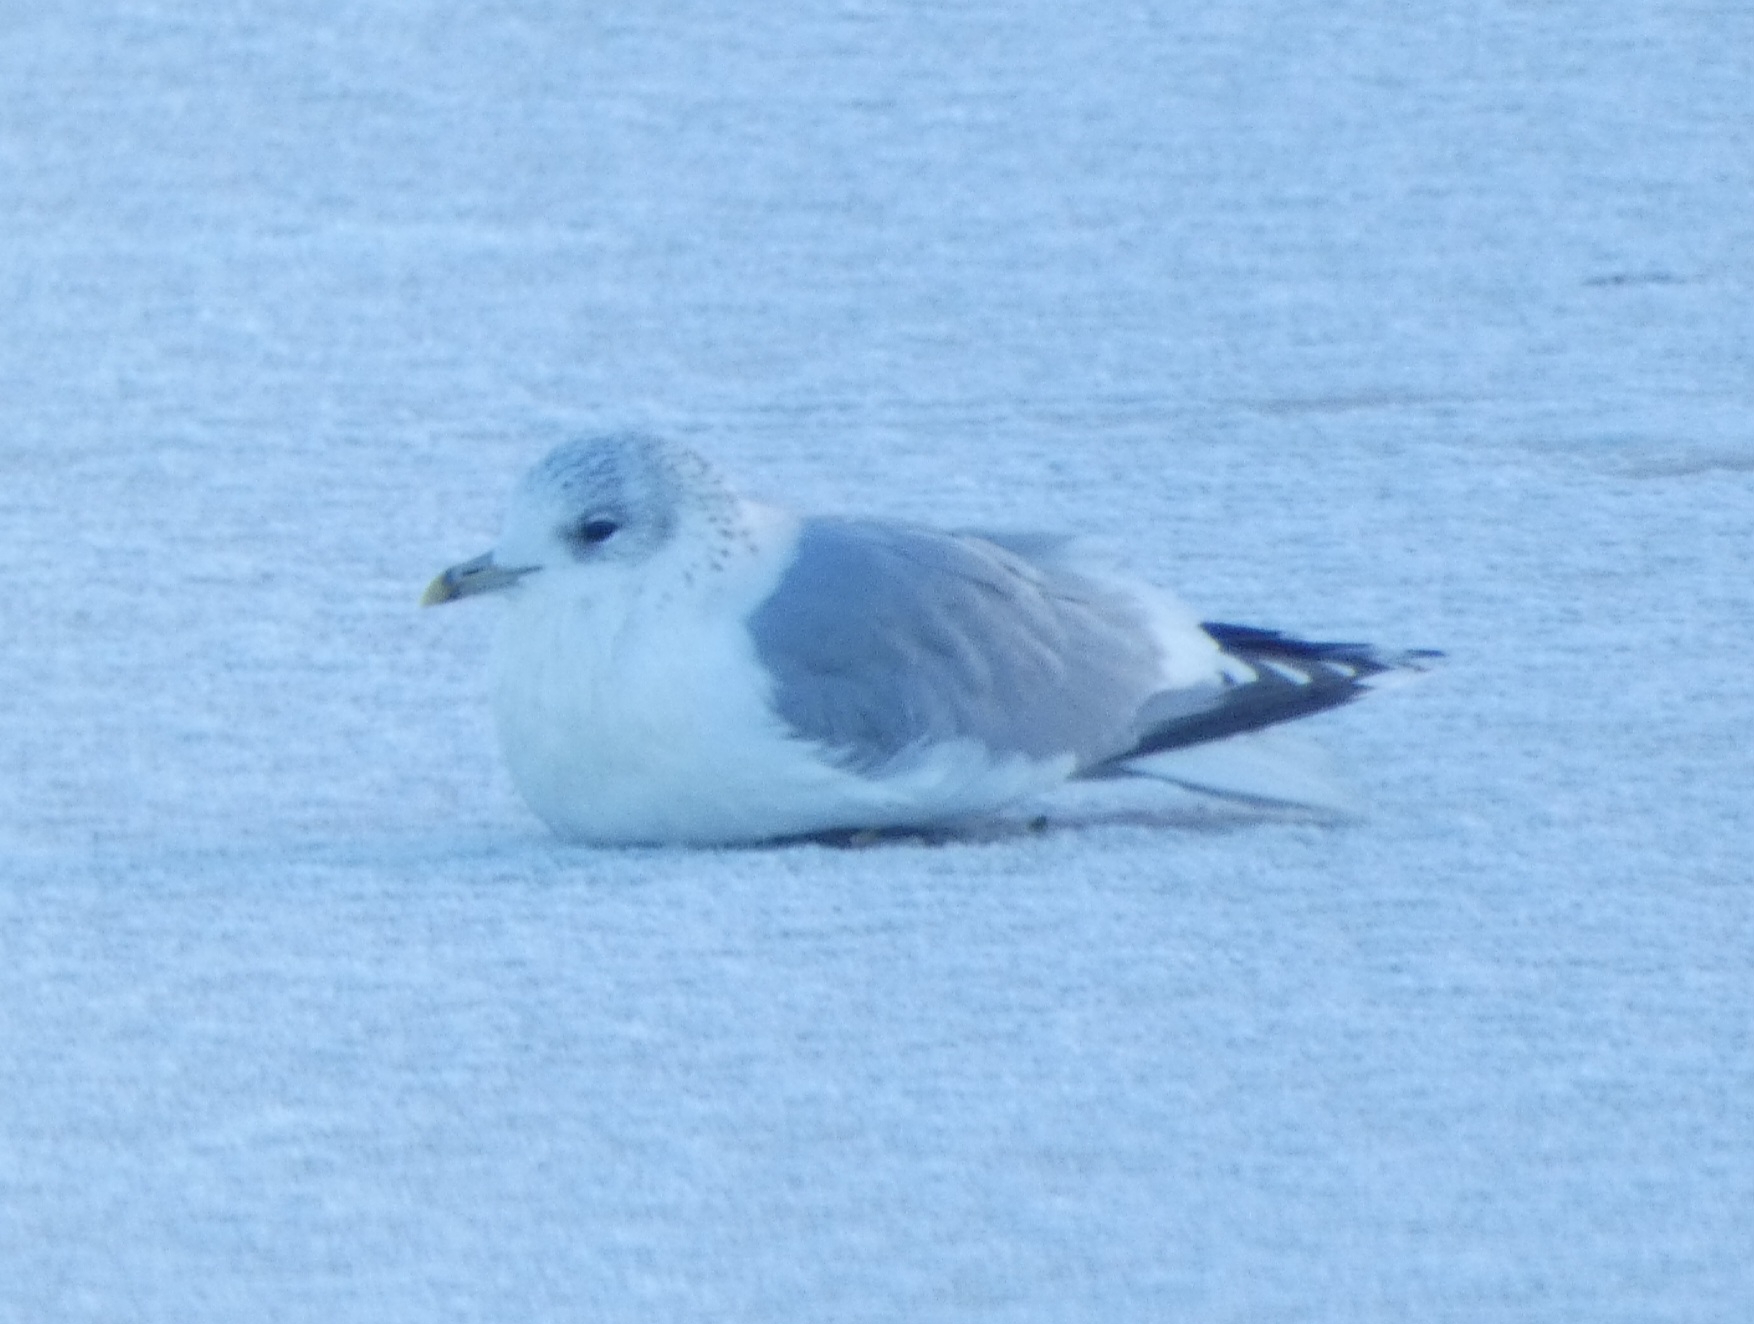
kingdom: Animalia
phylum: Chordata
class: Aves
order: Charadriiformes
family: Laridae
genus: Larus
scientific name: Larus canus
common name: Stormmåge
